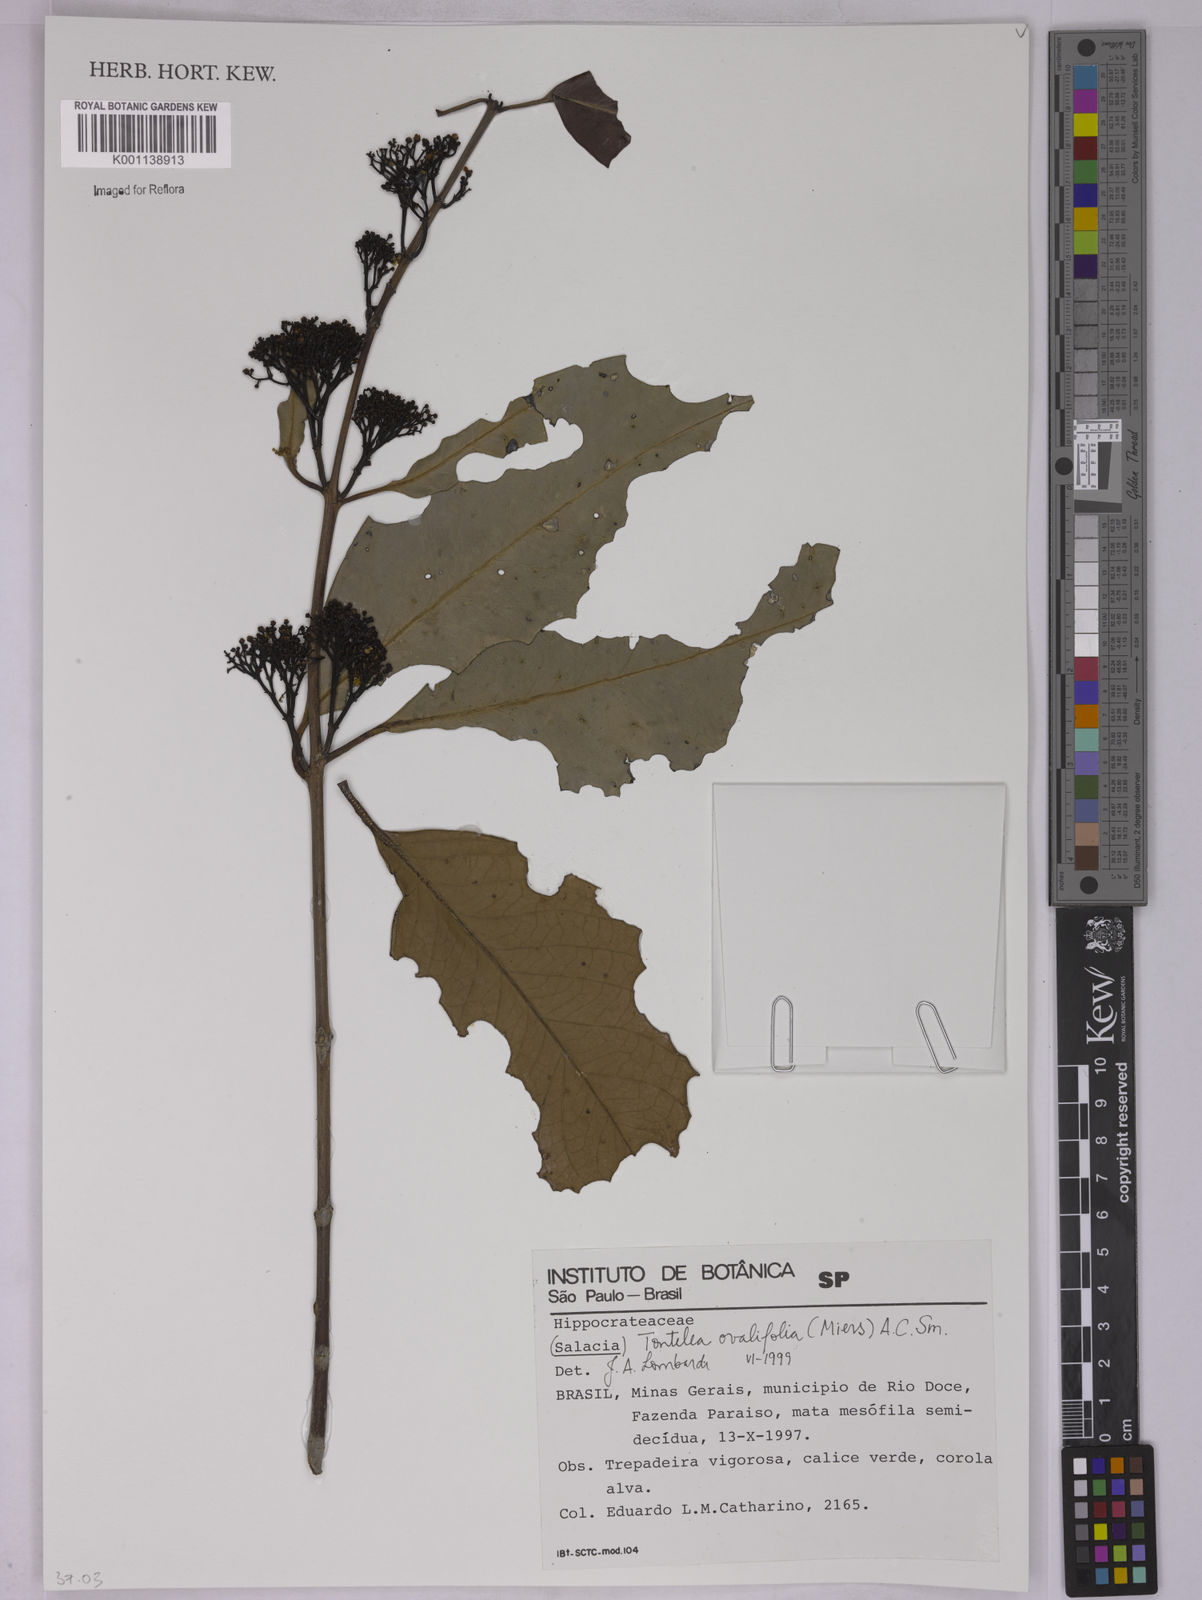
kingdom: Plantae
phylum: Tracheophyta
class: Magnoliopsida
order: Celastrales
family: Celastraceae
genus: Tontelea
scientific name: Tontelea passiflora
